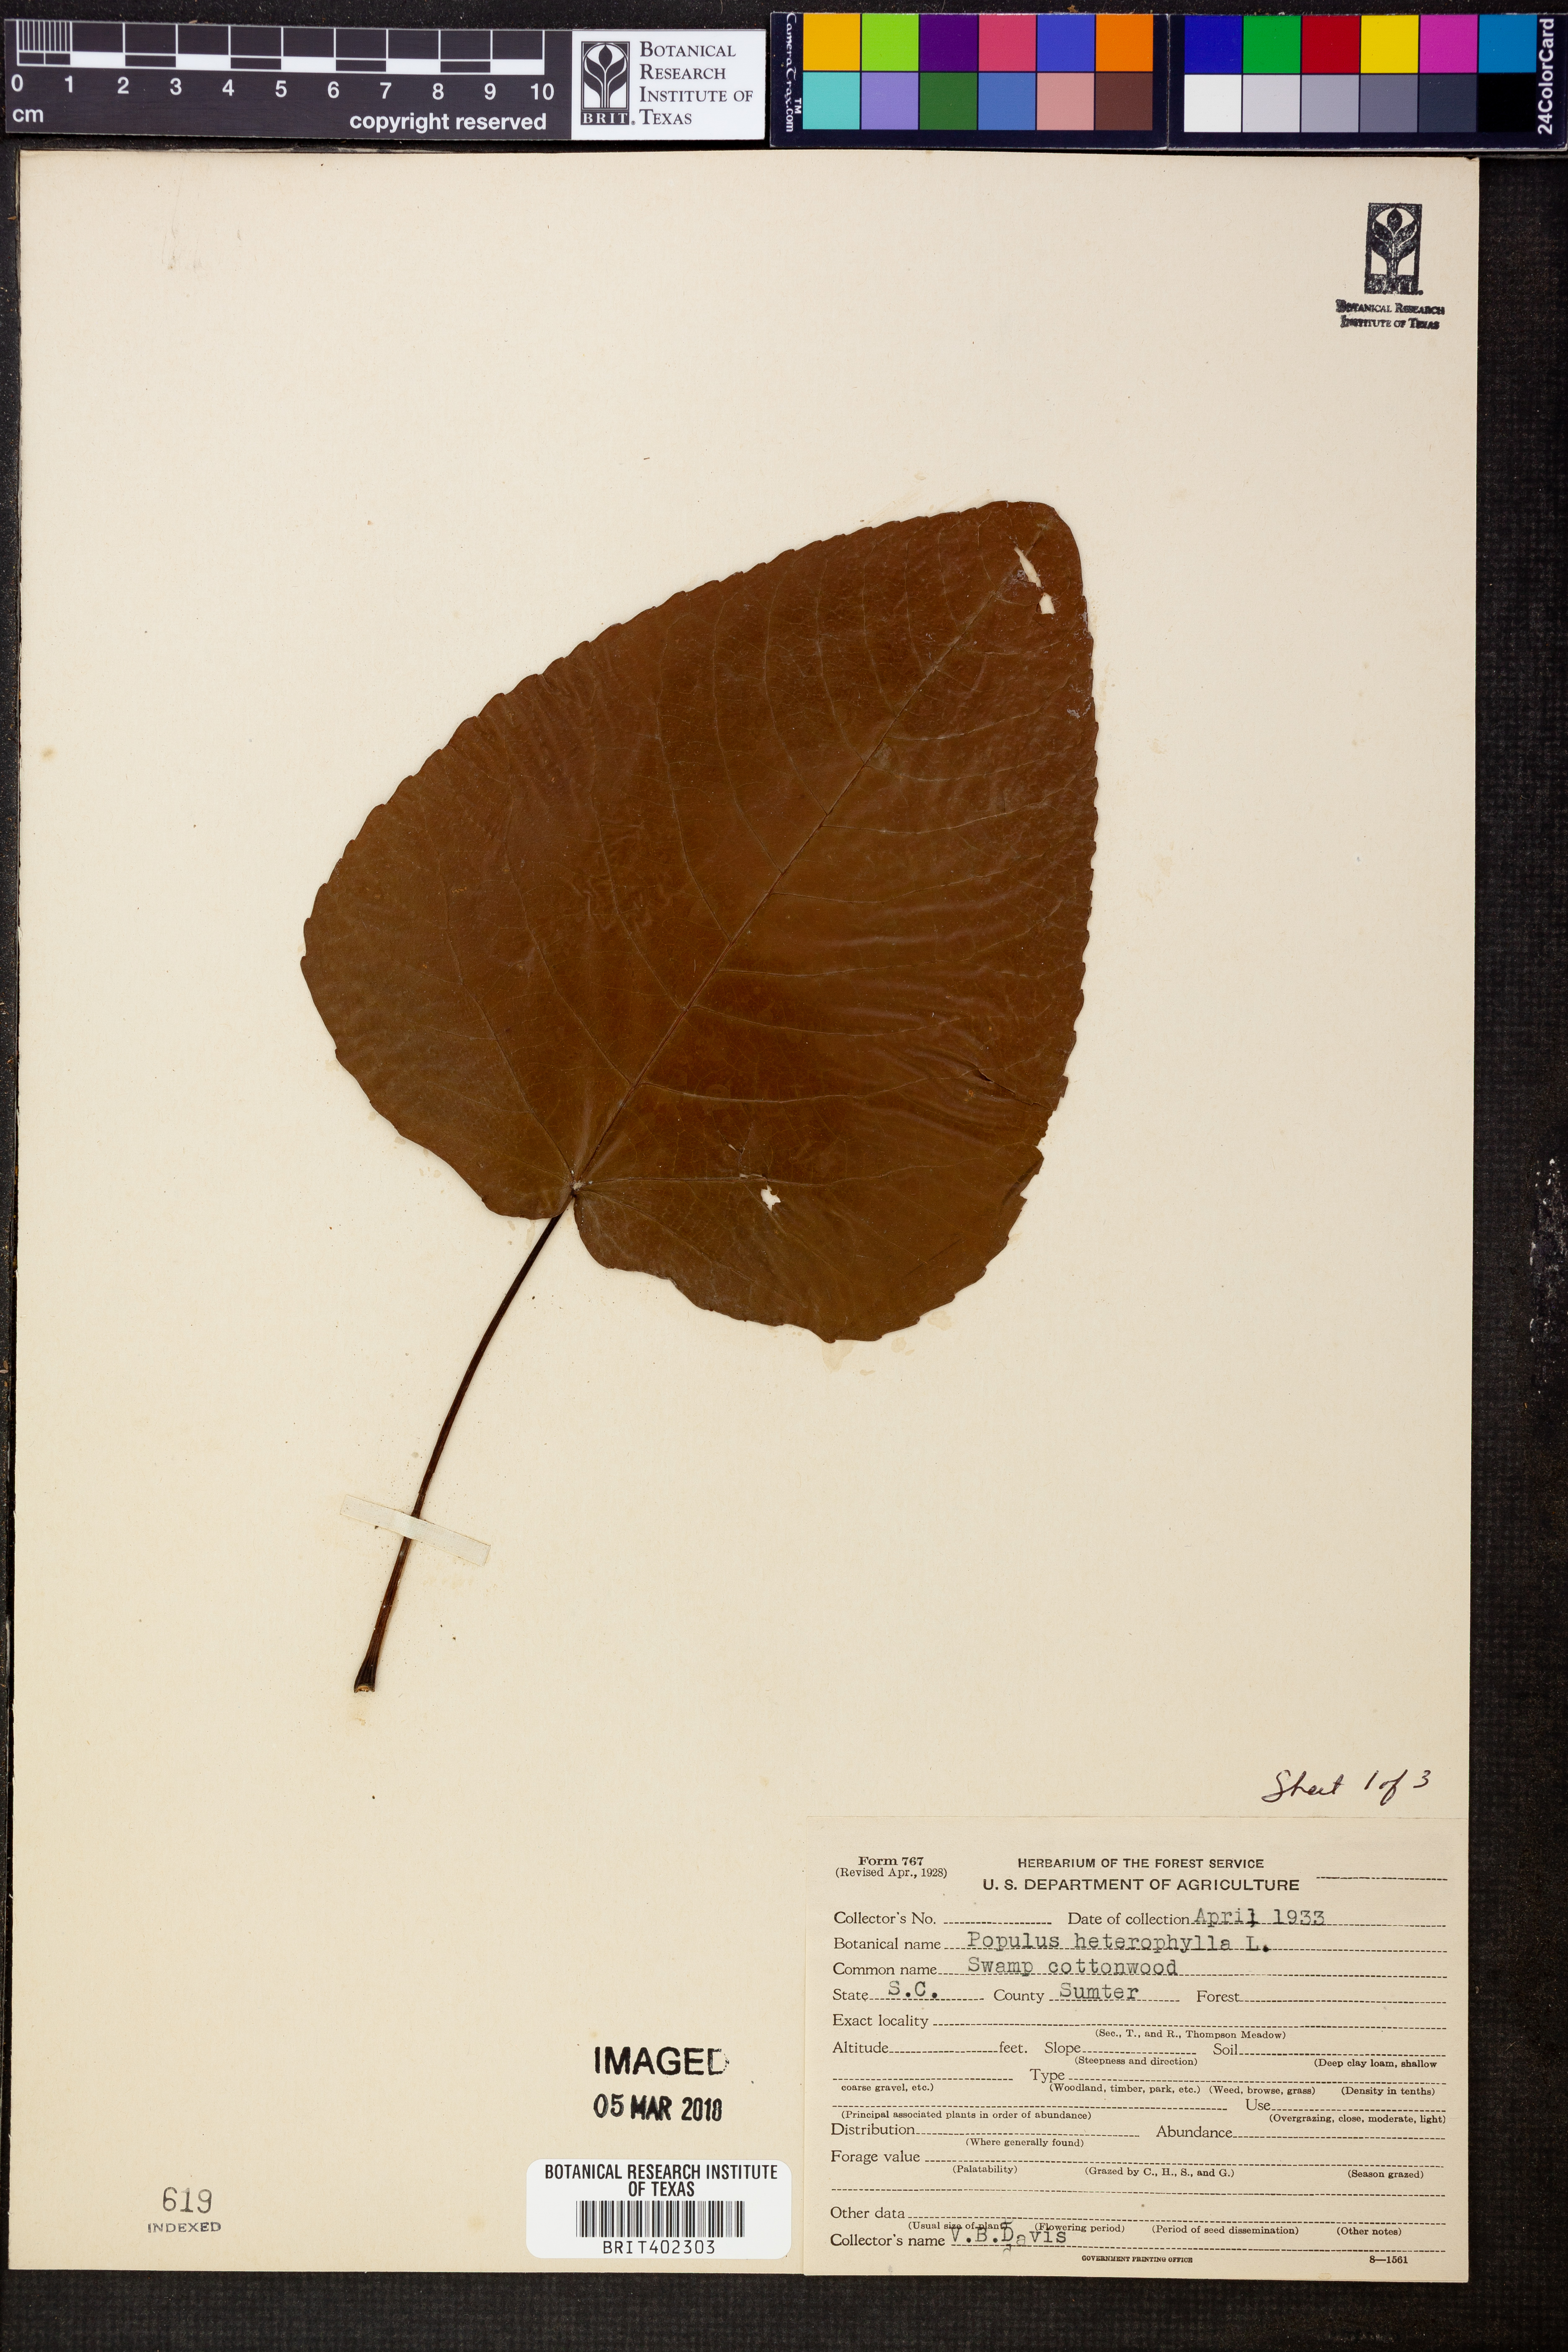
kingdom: Plantae
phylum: Tracheophyta
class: Magnoliopsida
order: Malpighiales
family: Salicaceae
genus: Populus
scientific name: Populus heterophylla
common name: Downy poplar
